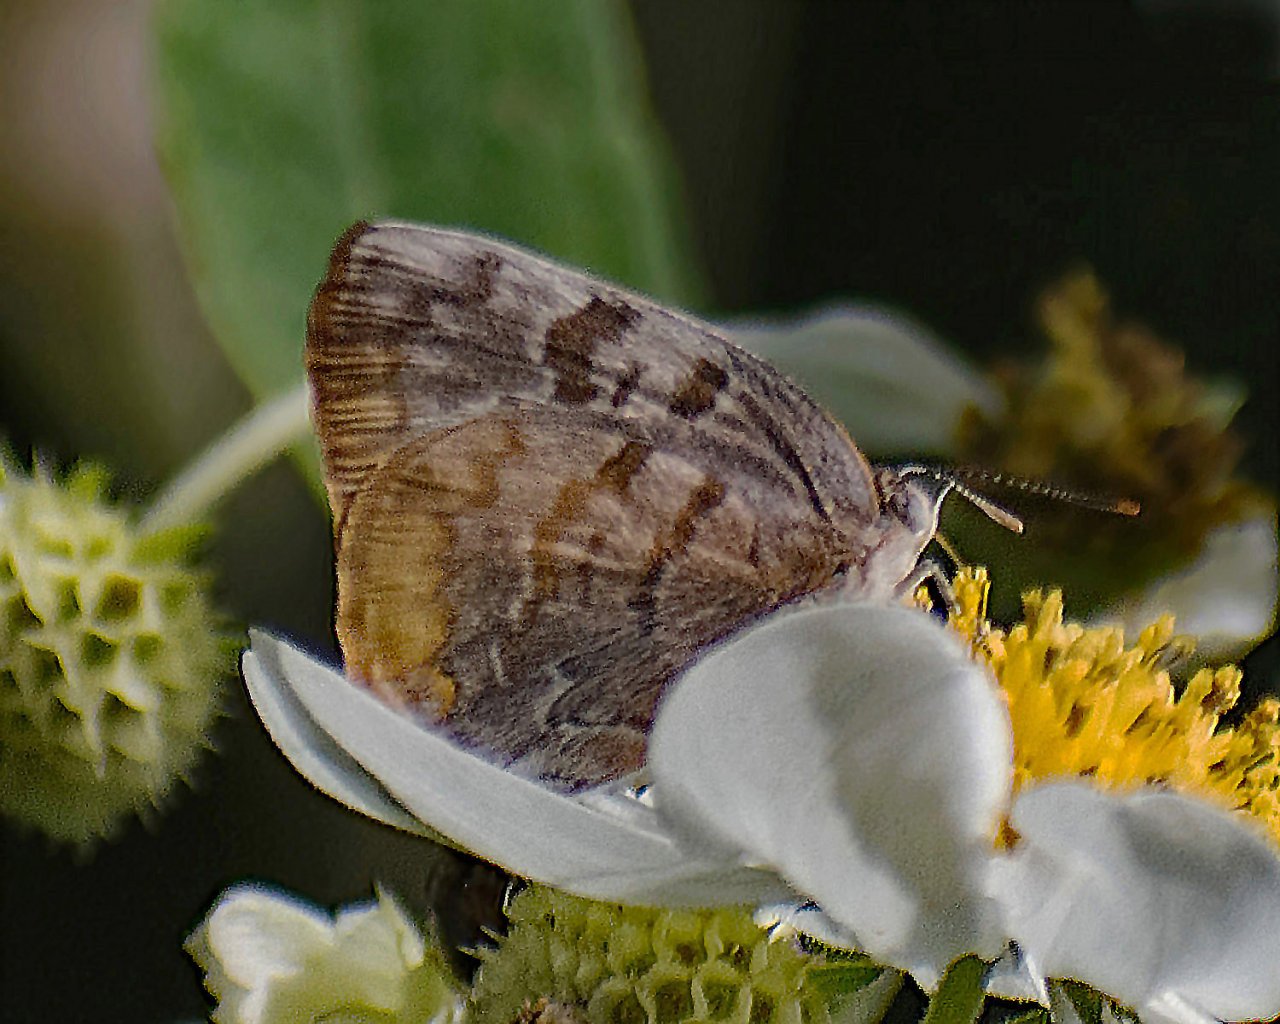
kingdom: Animalia
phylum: Arthropoda
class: Insecta
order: Lepidoptera
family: Lycaenidae
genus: Rekoa
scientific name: Rekoa palegon
